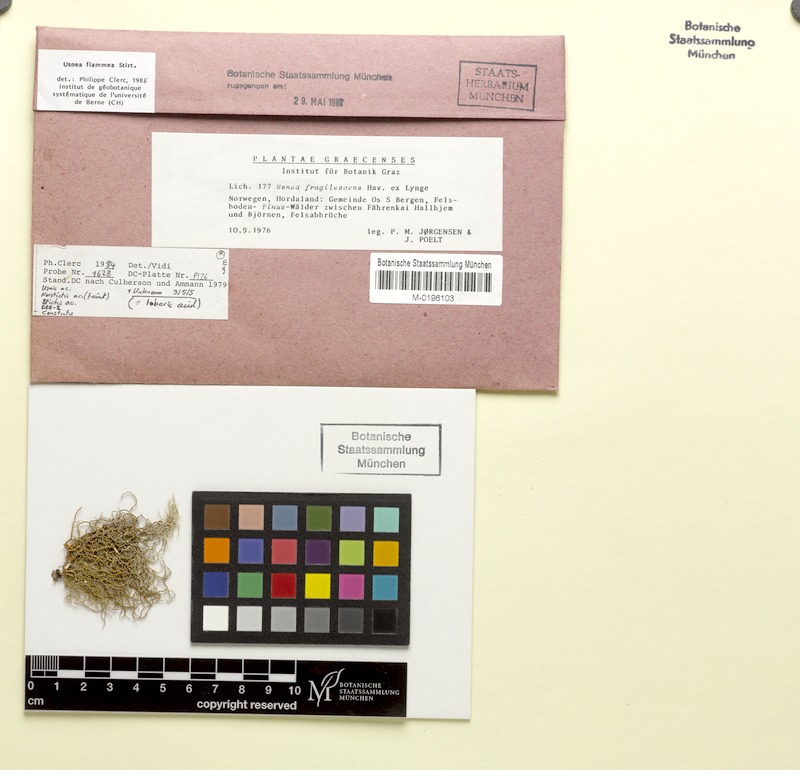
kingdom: Fungi
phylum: Ascomycota
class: Lecanoromycetes
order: Lecanorales
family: Parmeliaceae
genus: Usnea
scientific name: Usnea flammea
